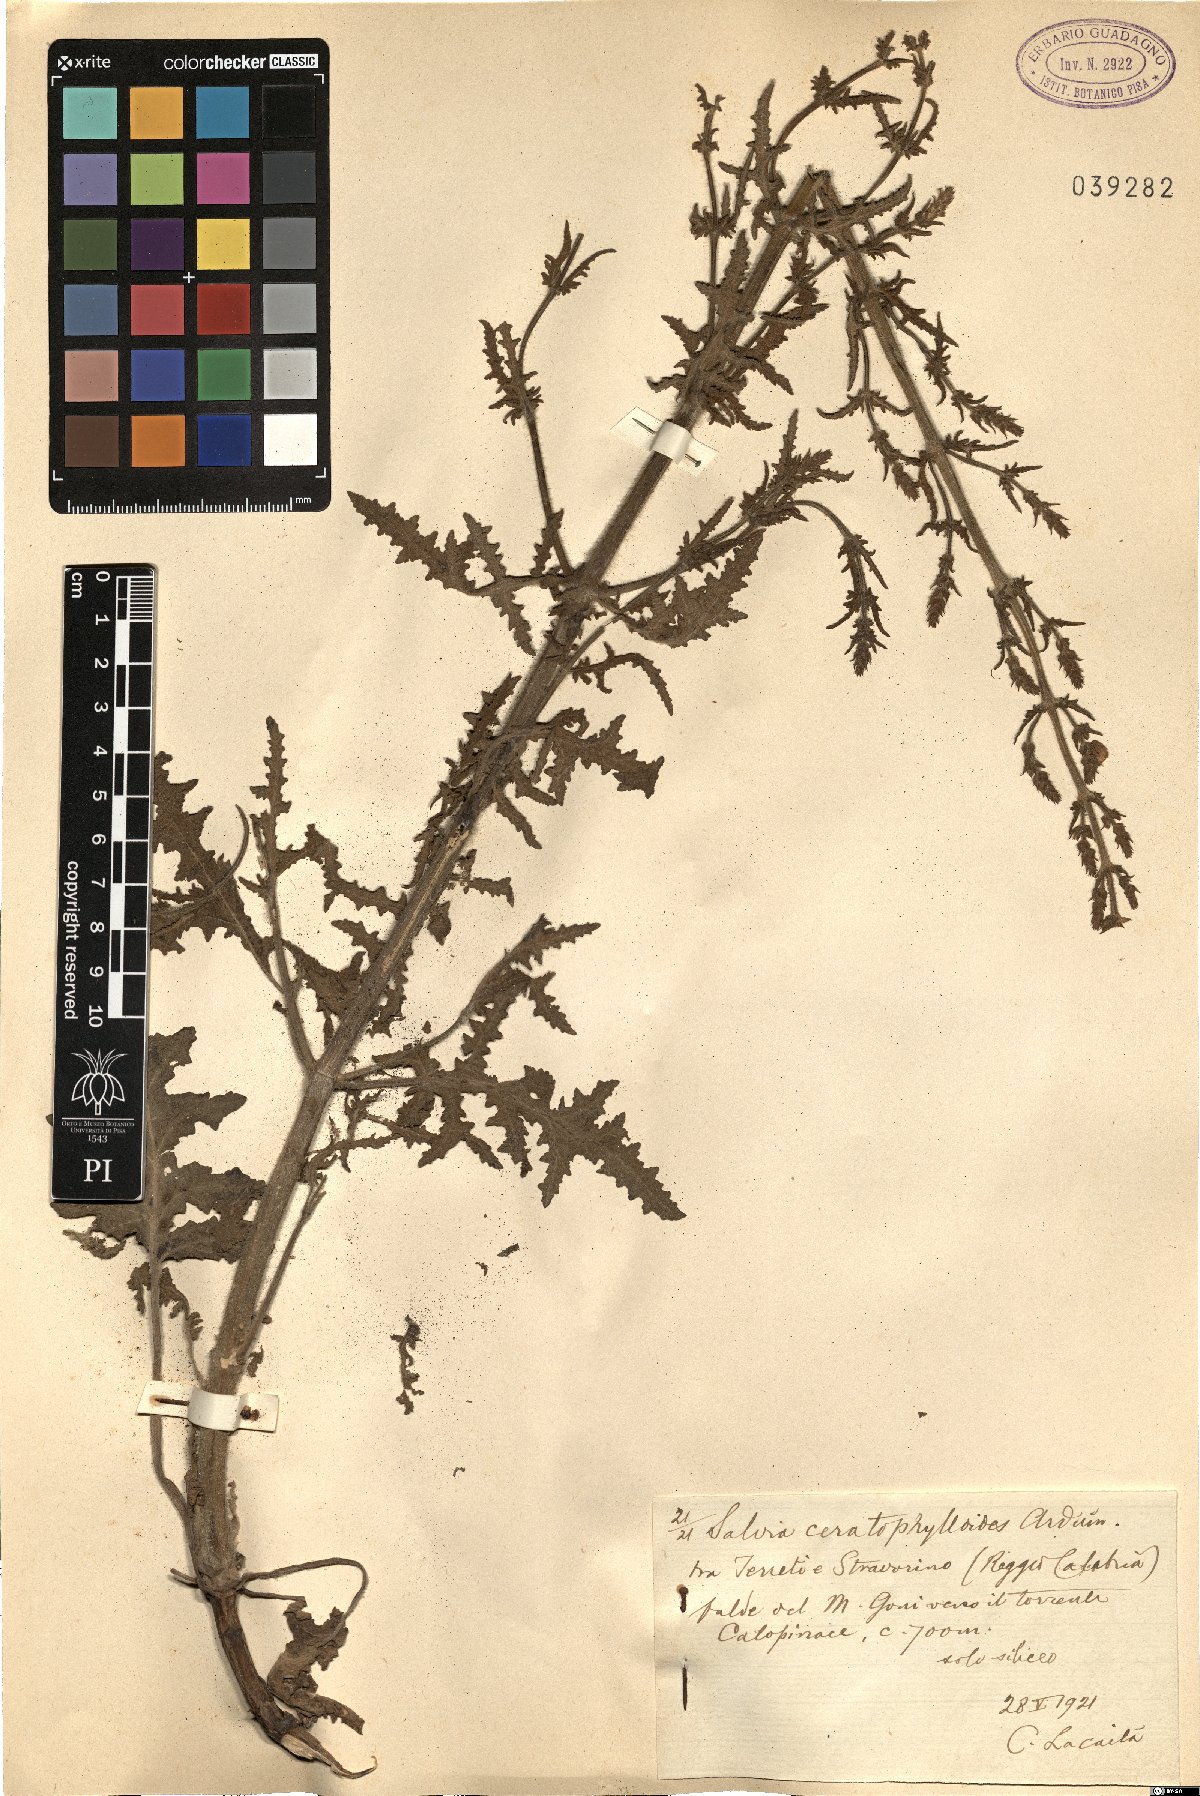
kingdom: Plantae
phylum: Tracheophyta
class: Magnoliopsida
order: Lamiales
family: Lamiaceae
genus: Salvia
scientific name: Salvia pratensis
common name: Meadow sage
